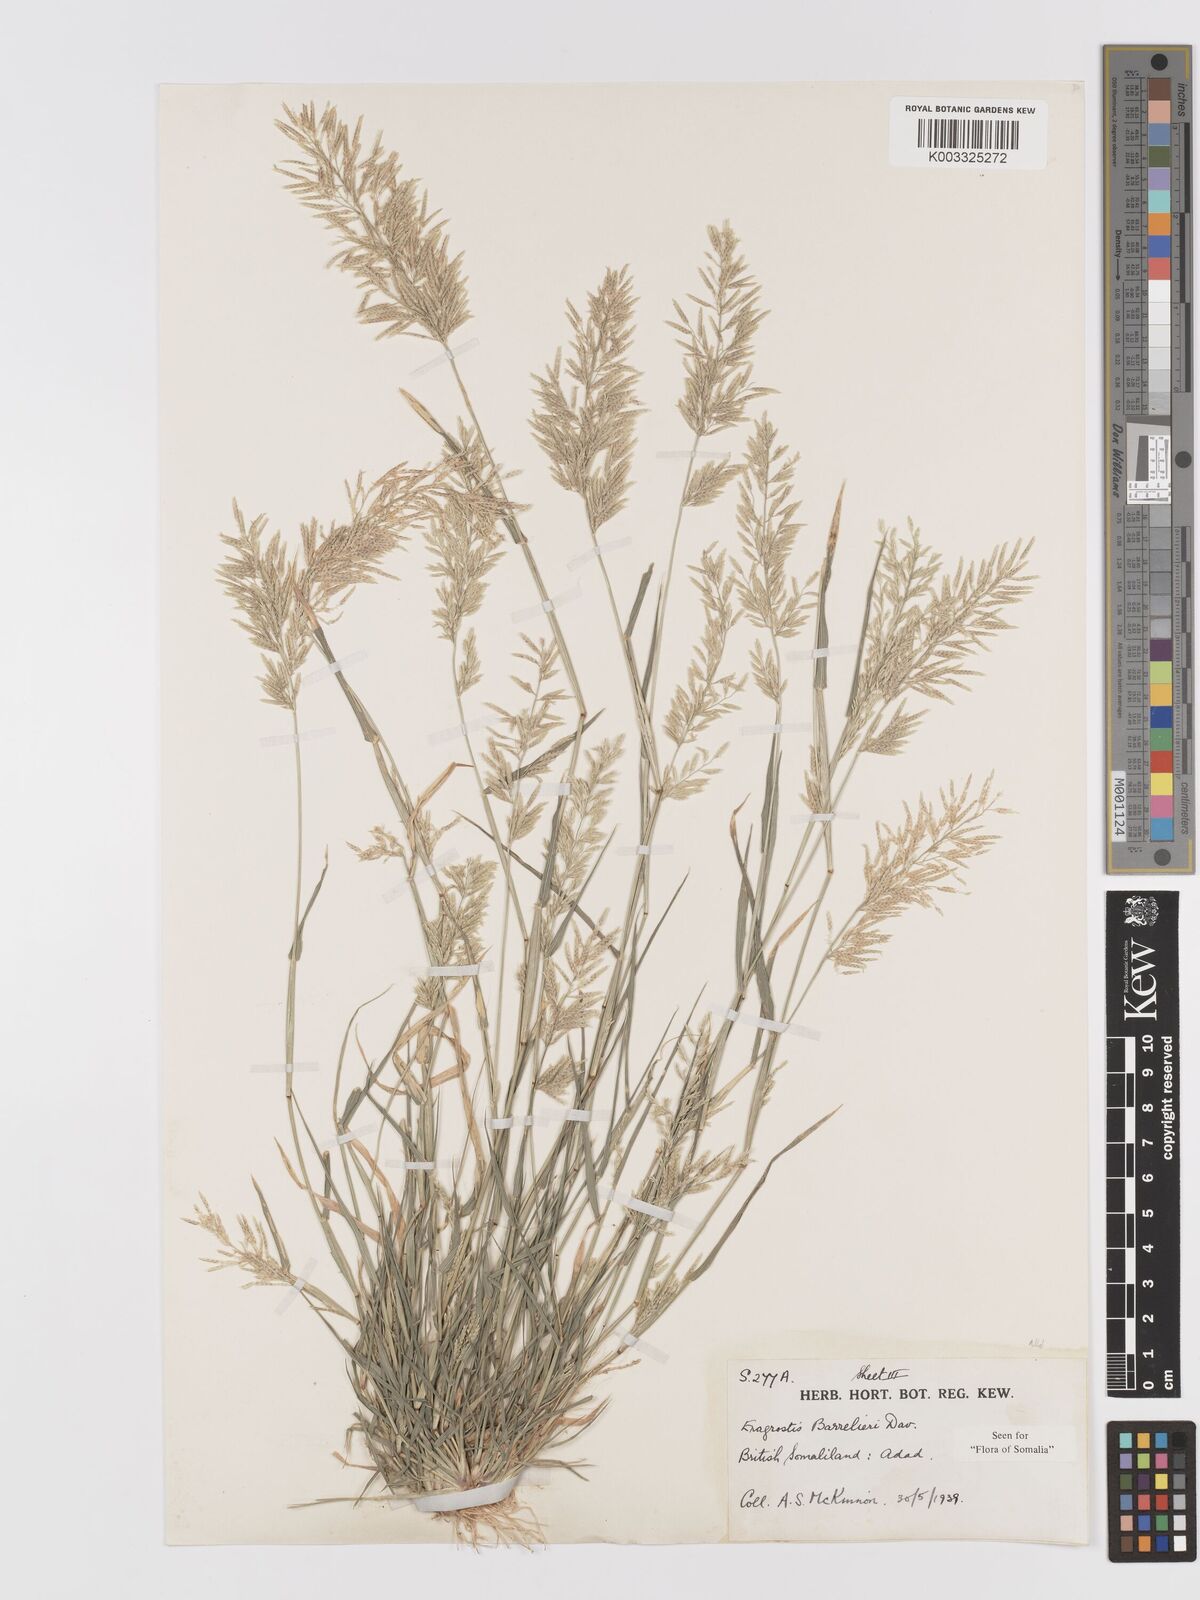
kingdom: Plantae
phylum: Tracheophyta
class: Liliopsida
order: Poales
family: Poaceae
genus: Eragrostis
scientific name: Eragrostis barrelieri
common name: Mediterranean lovegrass
